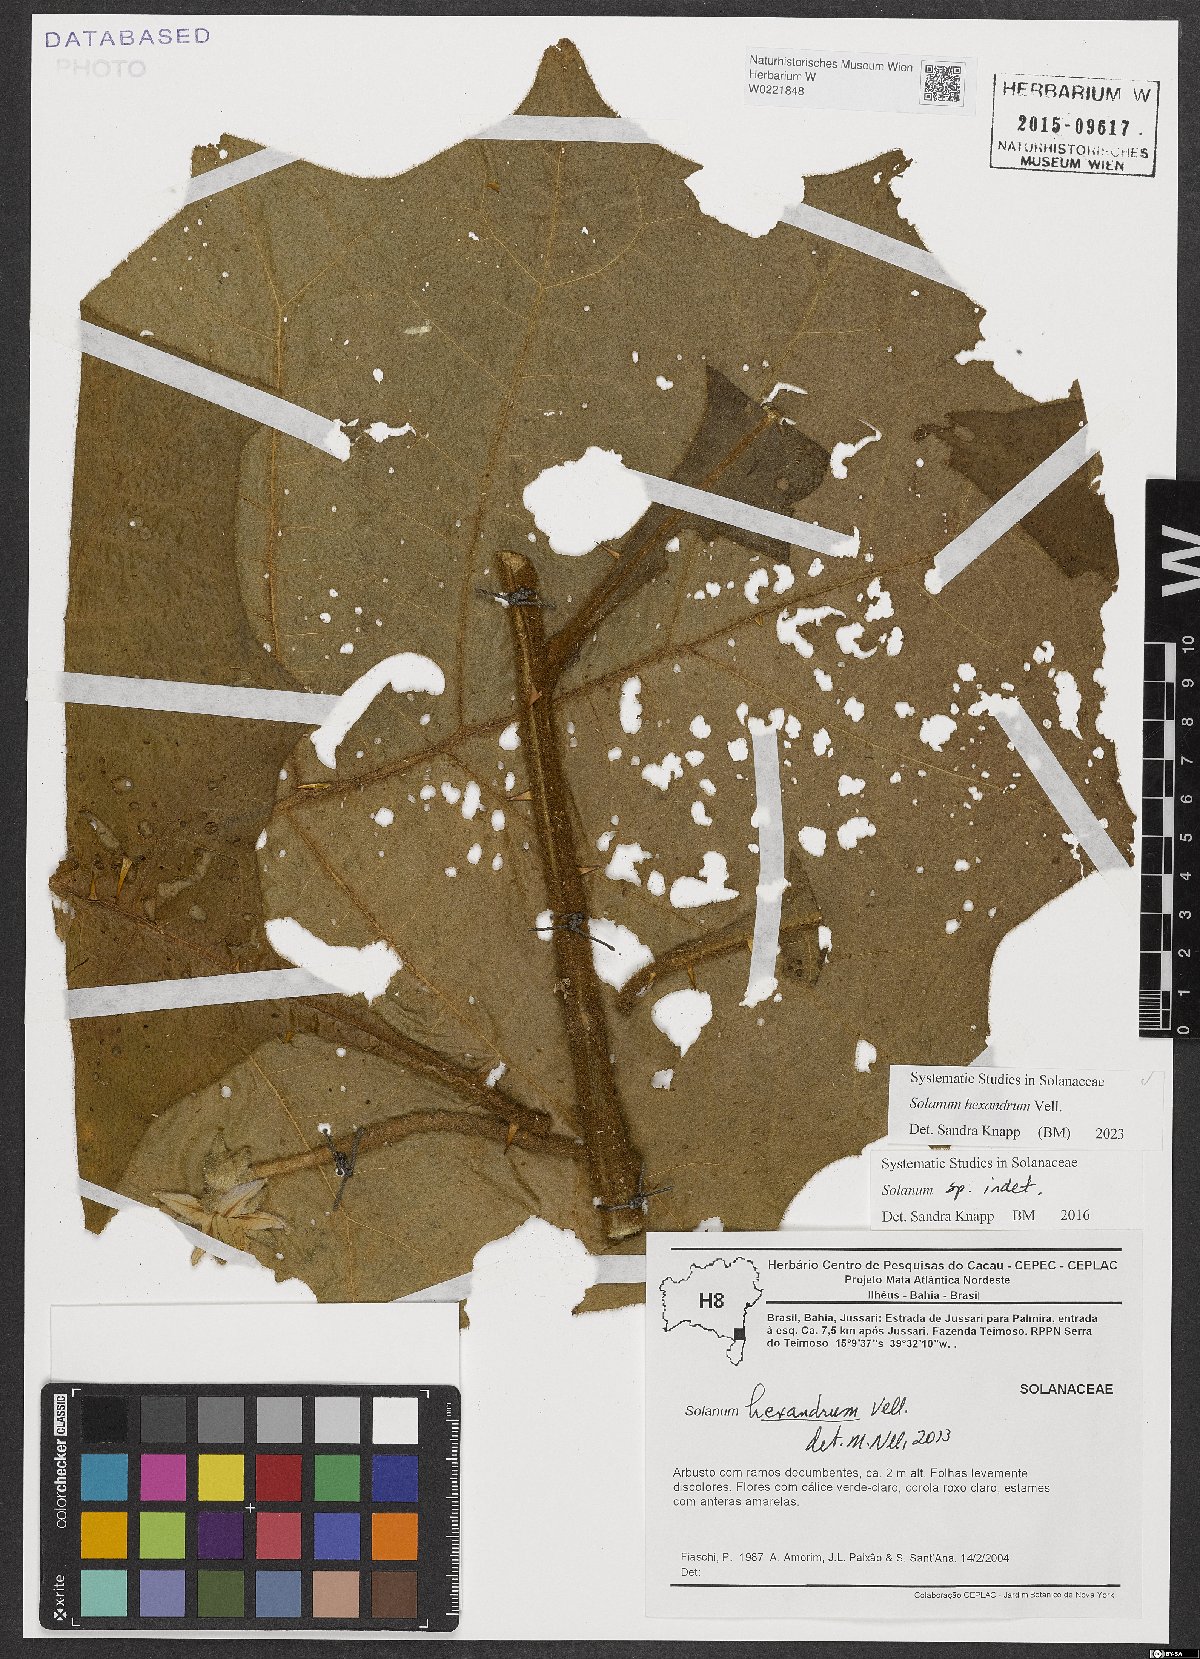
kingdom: Plantae
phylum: Tracheophyta
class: Magnoliopsida
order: Solanales
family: Solanaceae
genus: Solanum
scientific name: Solanum hexandrum
